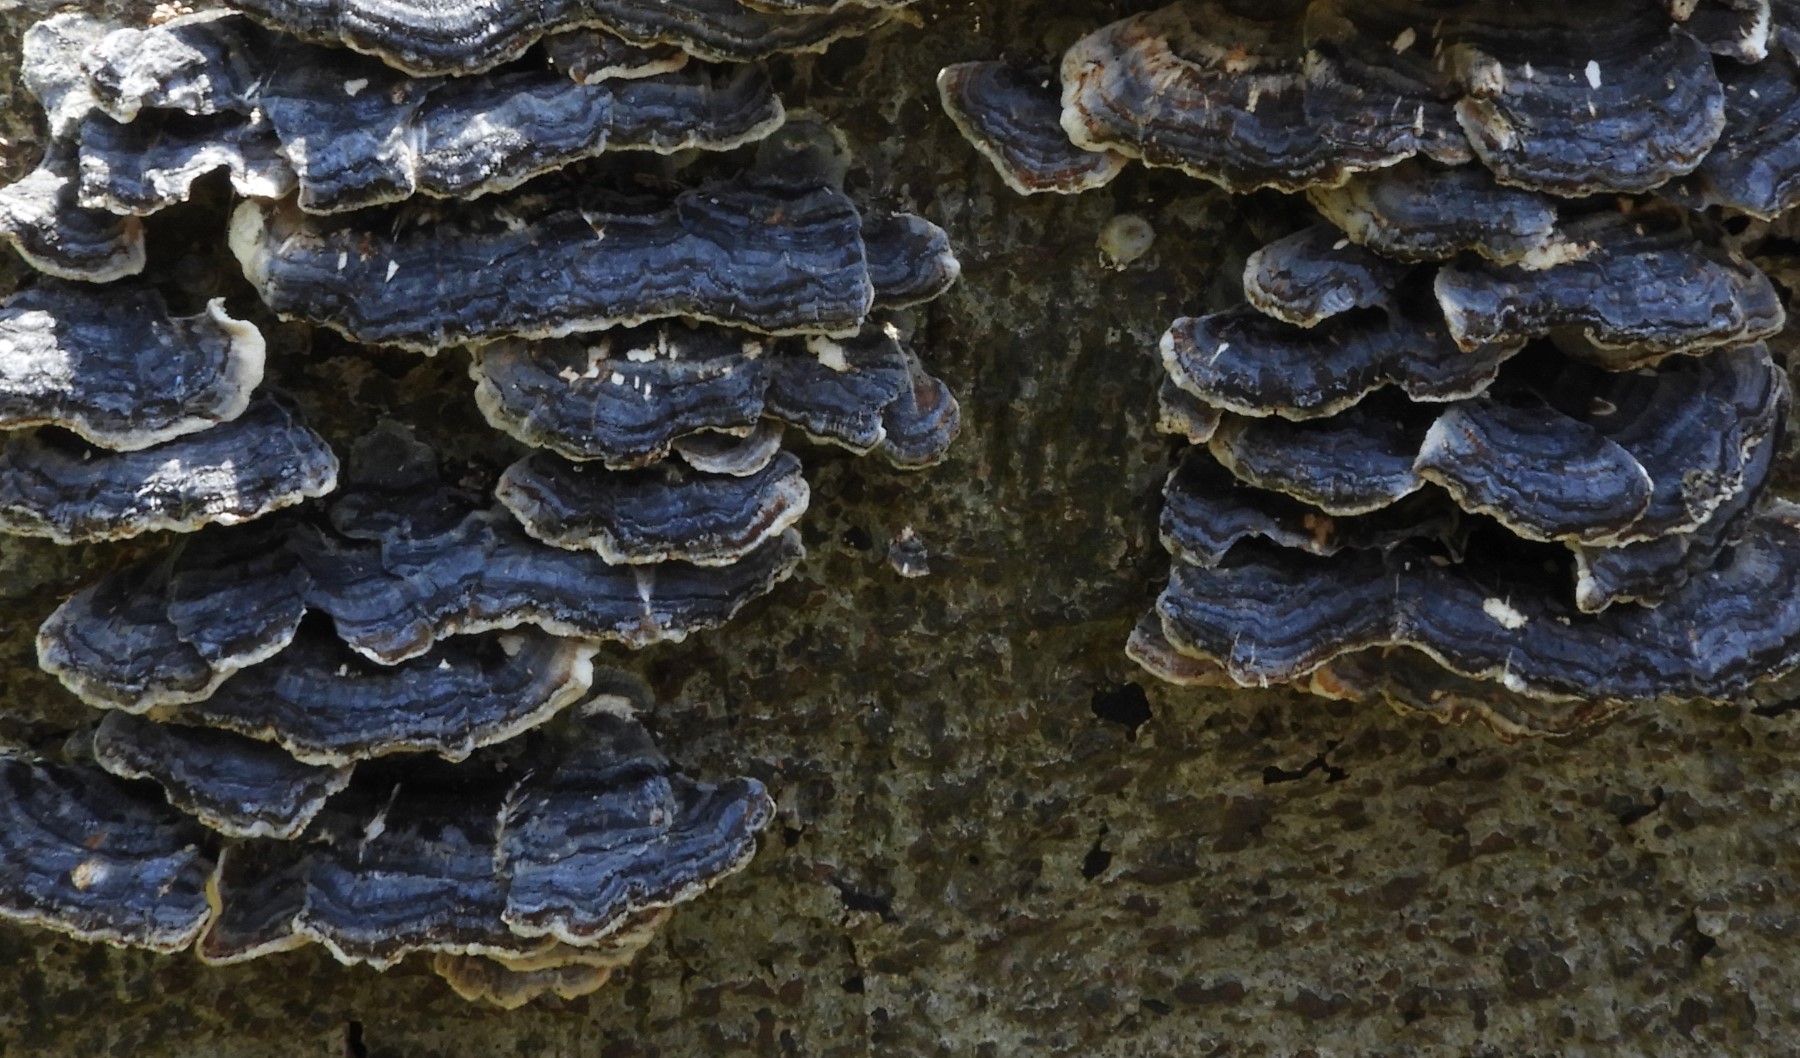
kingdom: Fungi
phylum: Basidiomycota
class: Agaricomycetes
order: Polyporales
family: Polyporaceae
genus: Trametes
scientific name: Trametes versicolor
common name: broget læderporesvamp
